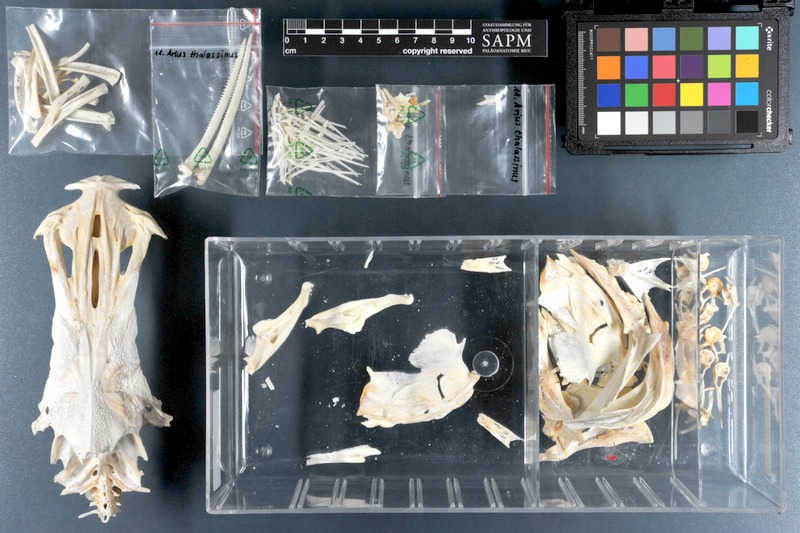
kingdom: Animalia
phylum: Chordata
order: Siluriformes
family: Ariidae
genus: Netuma
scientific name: Netuma thalassina
